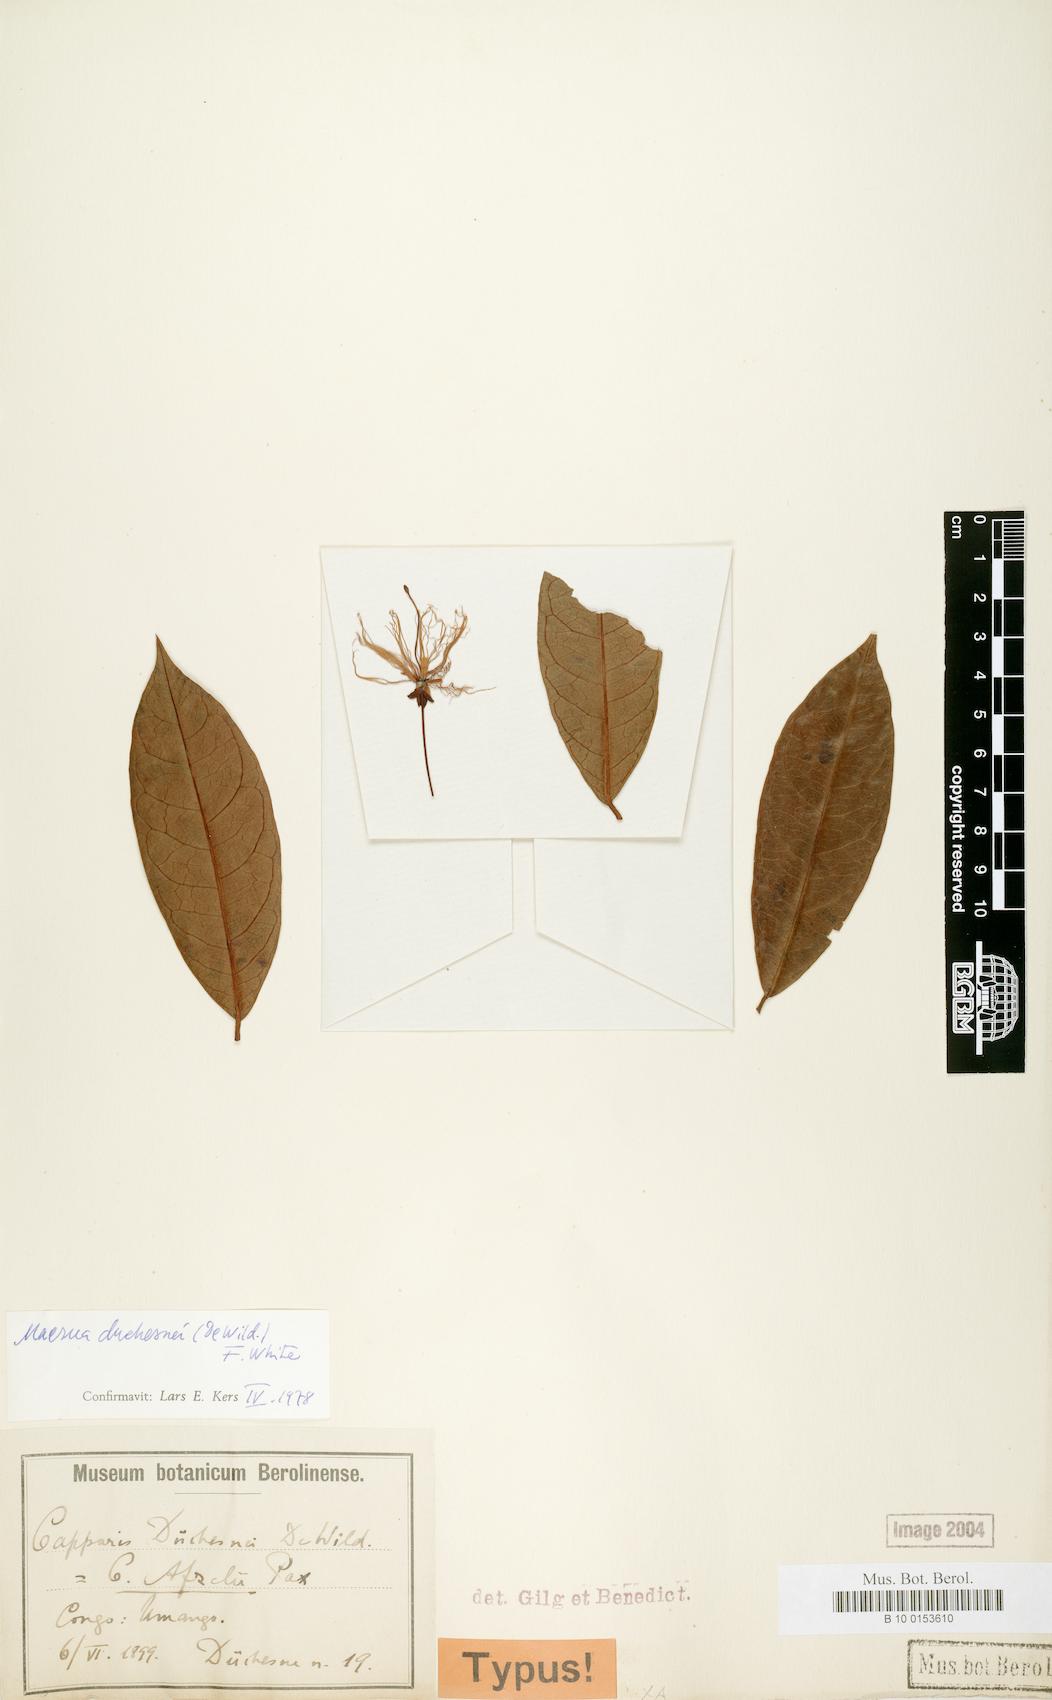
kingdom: Plantae
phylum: Tracheophyta
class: Magnoliopsida
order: Brassicales
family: Capparaceae
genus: Maerua
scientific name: Maerua duchesnei
